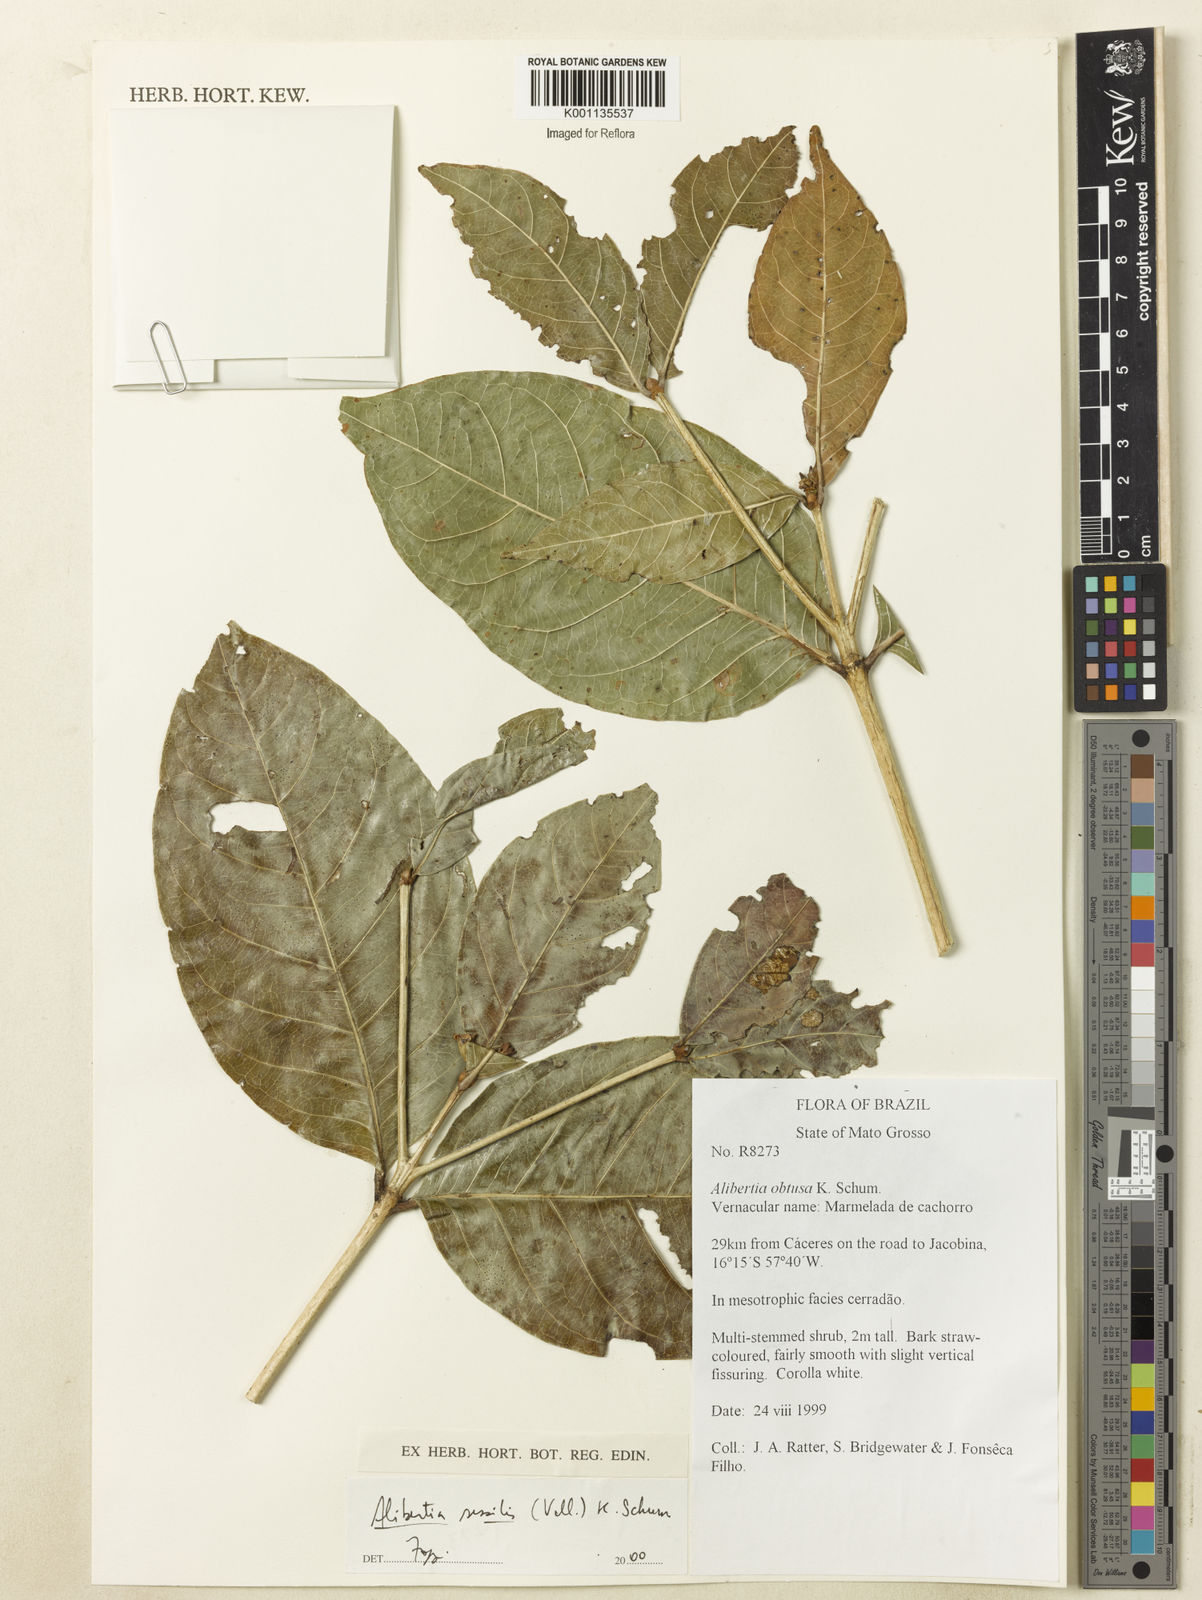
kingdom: Plantae
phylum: Tracheophyta
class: Magnoliopsida
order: Gentianales
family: Rubiaceae
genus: Cordiera
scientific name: Cordiera sessilis
